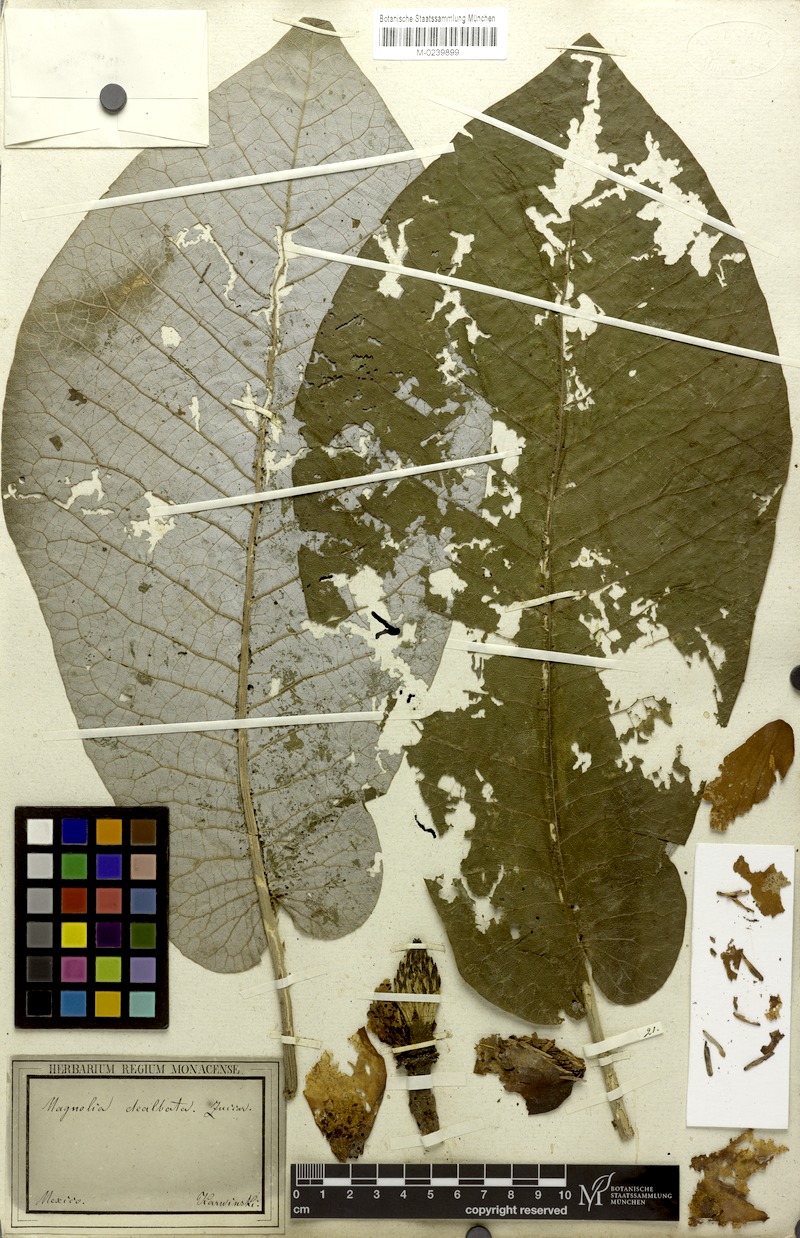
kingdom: Plantae
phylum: Tracheophyta
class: Magnoliopsida
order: Magnoliales
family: Magnoliaceae
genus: Magnolia
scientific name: Magnolia dealbata
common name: Cloudforest magnolia
